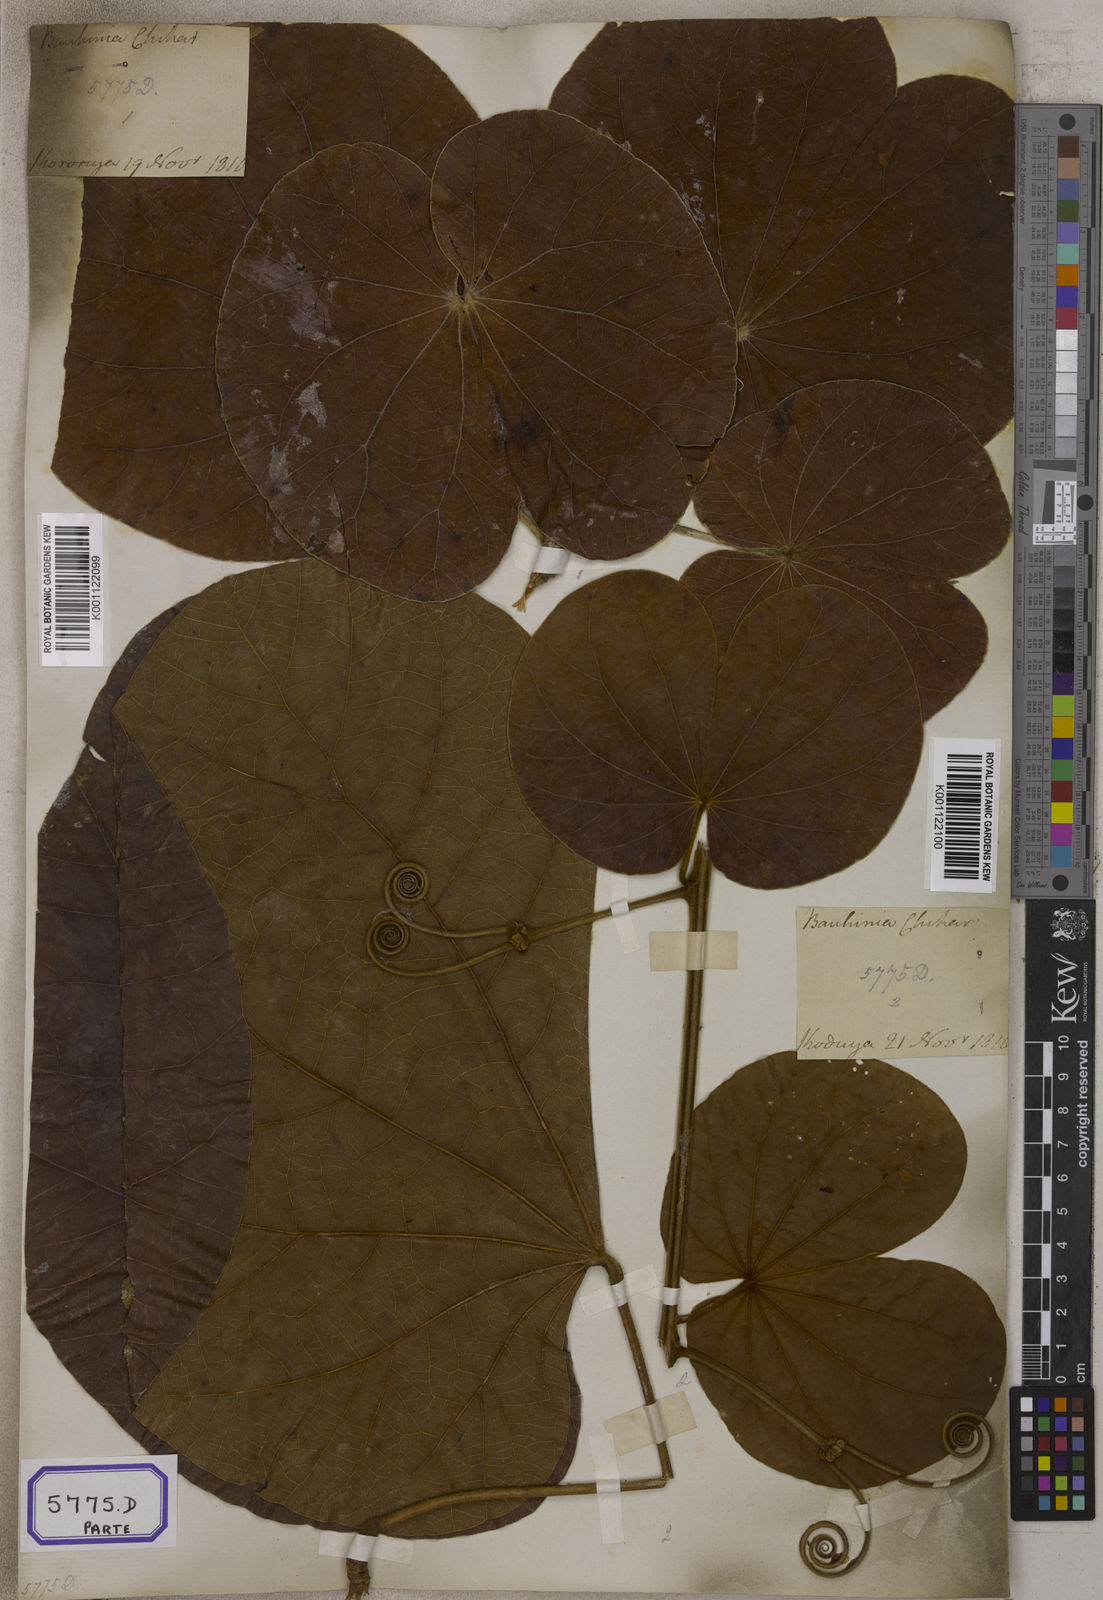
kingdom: Plantae
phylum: Tracheophyta
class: Magnoliopsida
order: Fabales
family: Fabaceae
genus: Bauhinia
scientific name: Bauhinia
